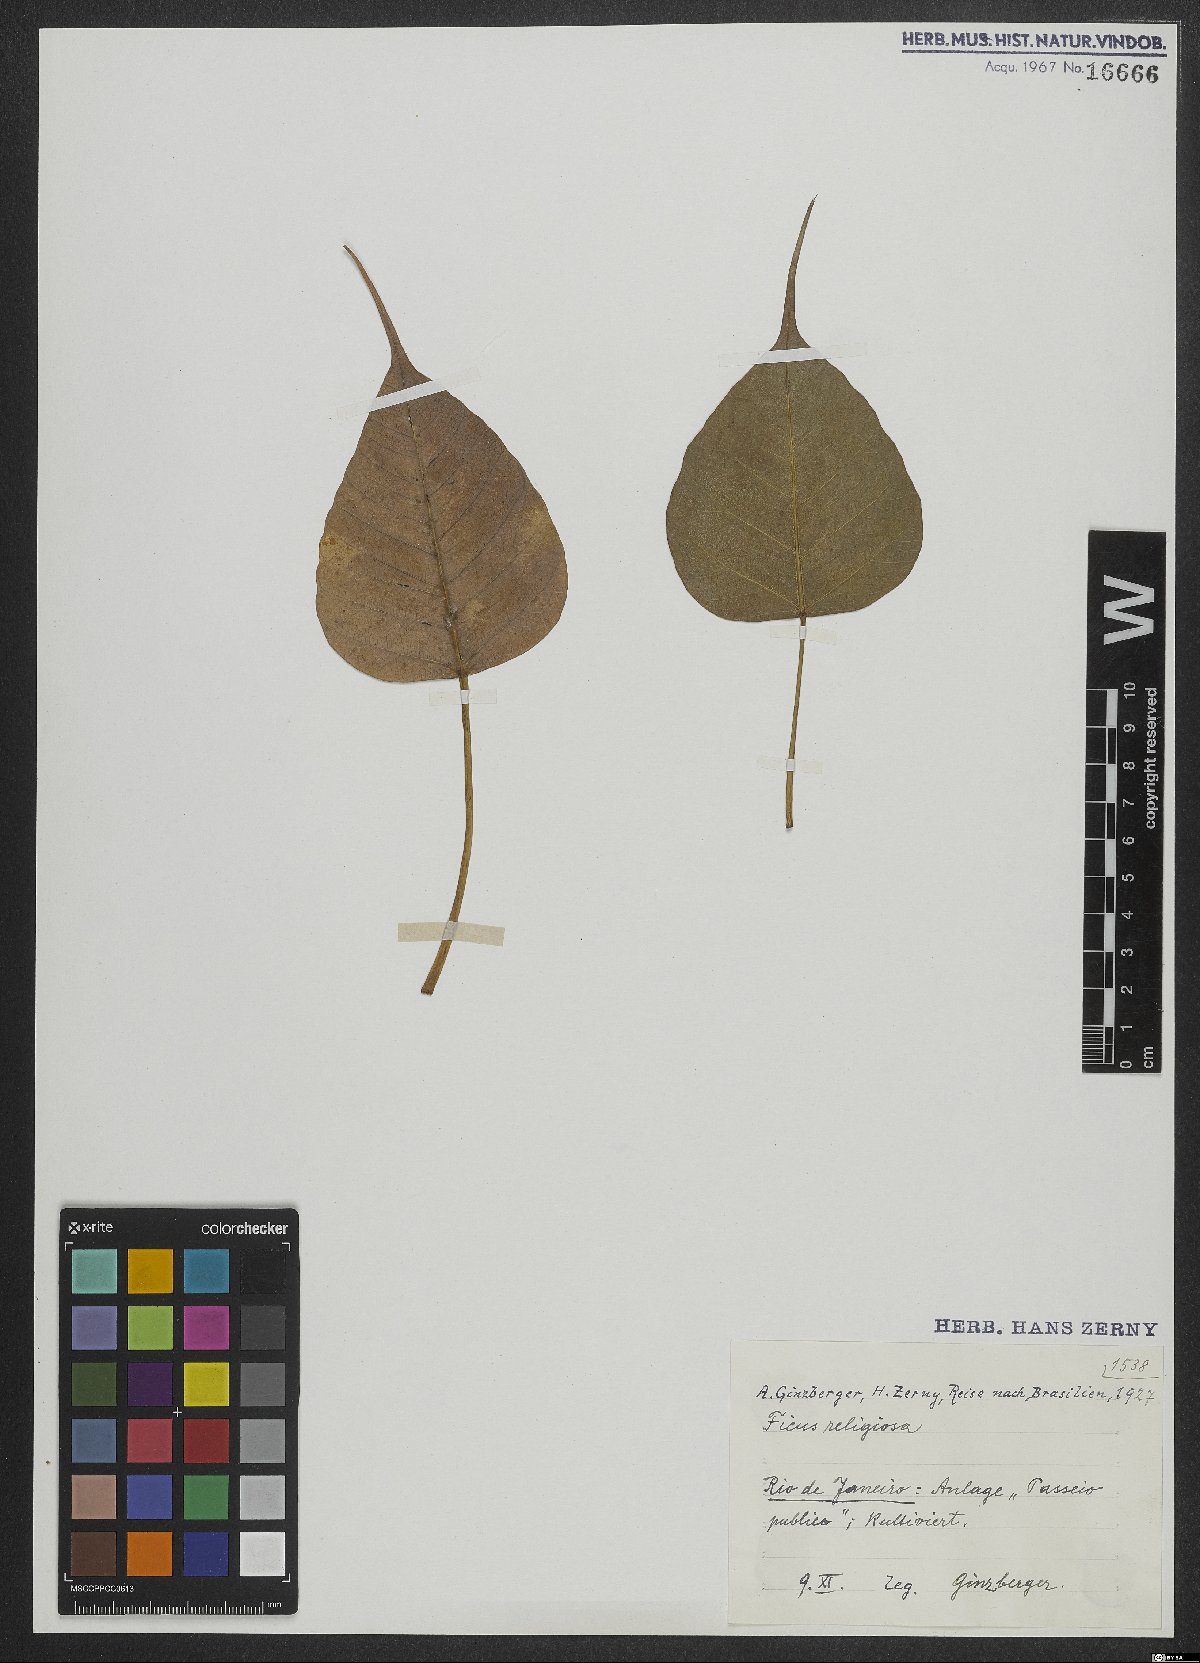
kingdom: Plantae
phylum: Tracheophyta
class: Magnoliopsida
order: Rosales
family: Moraceae
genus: Ficus
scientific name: Ficus
